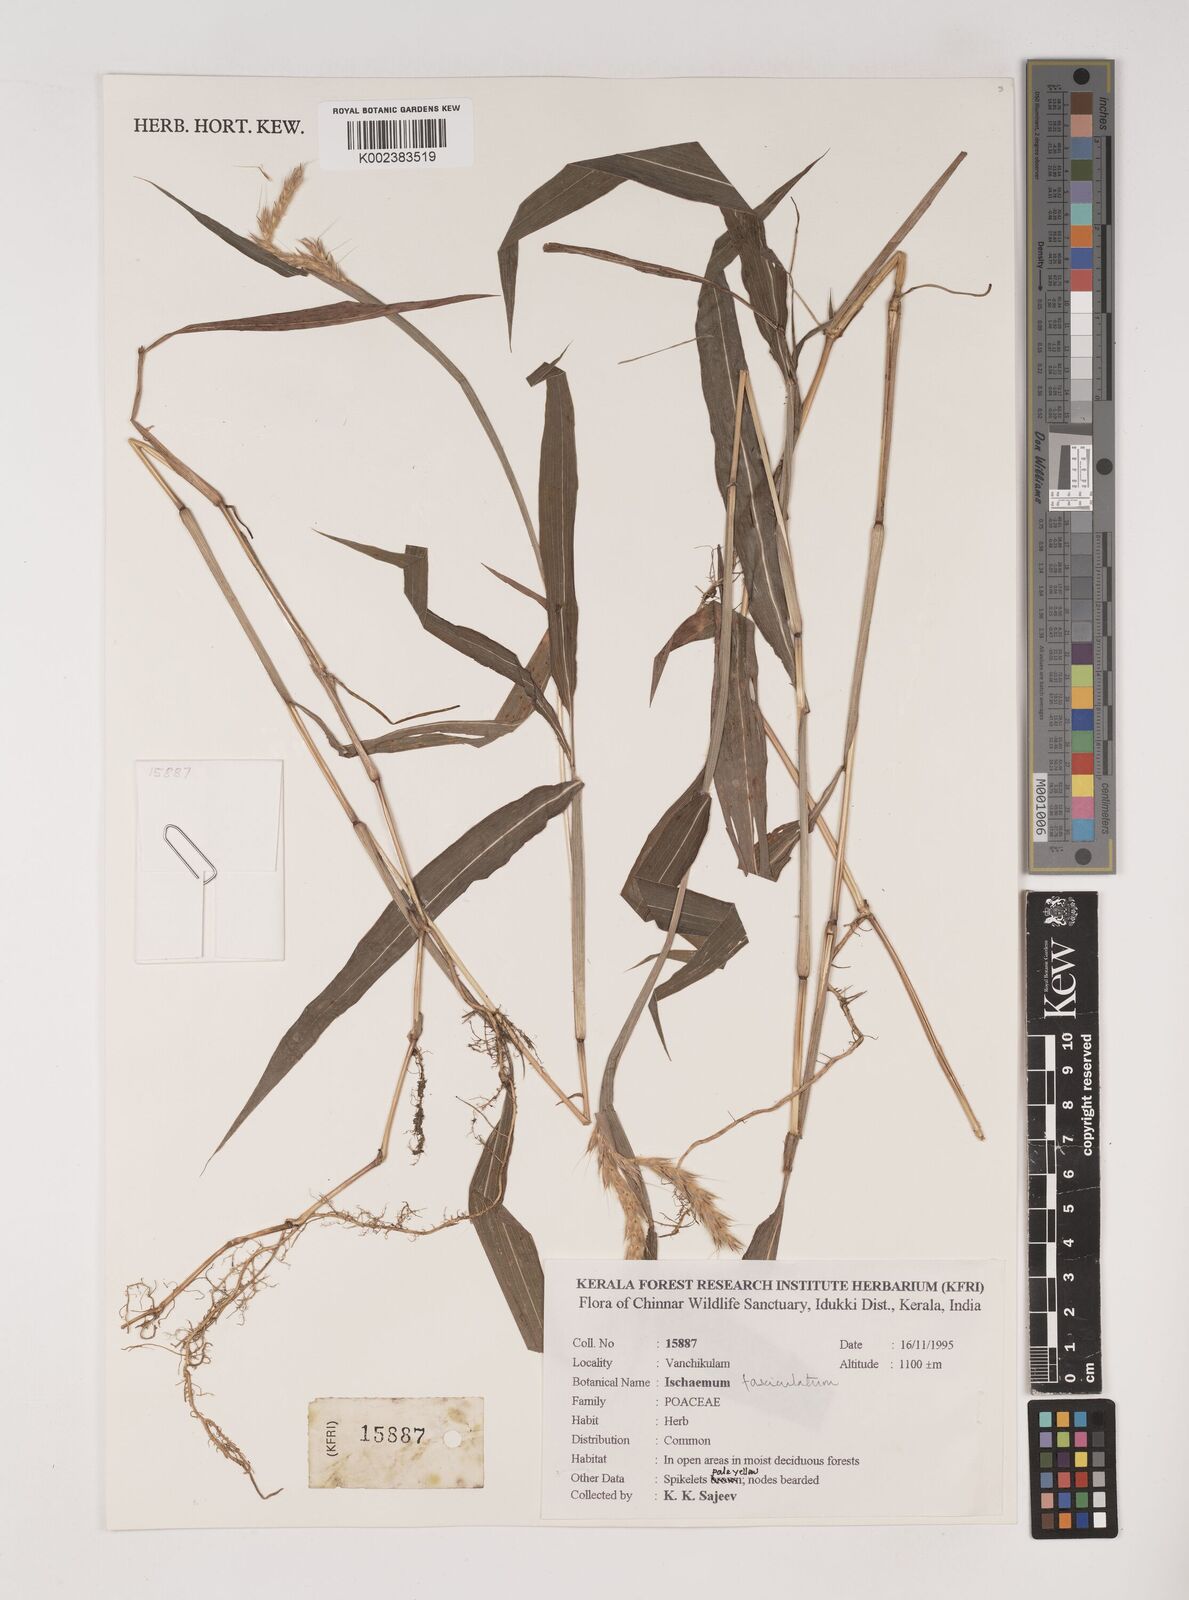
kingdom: Plantae
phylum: Tracheophyta
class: Liliopsida
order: Poales
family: Poaceae
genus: Ischaemum
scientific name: Ischaemum
